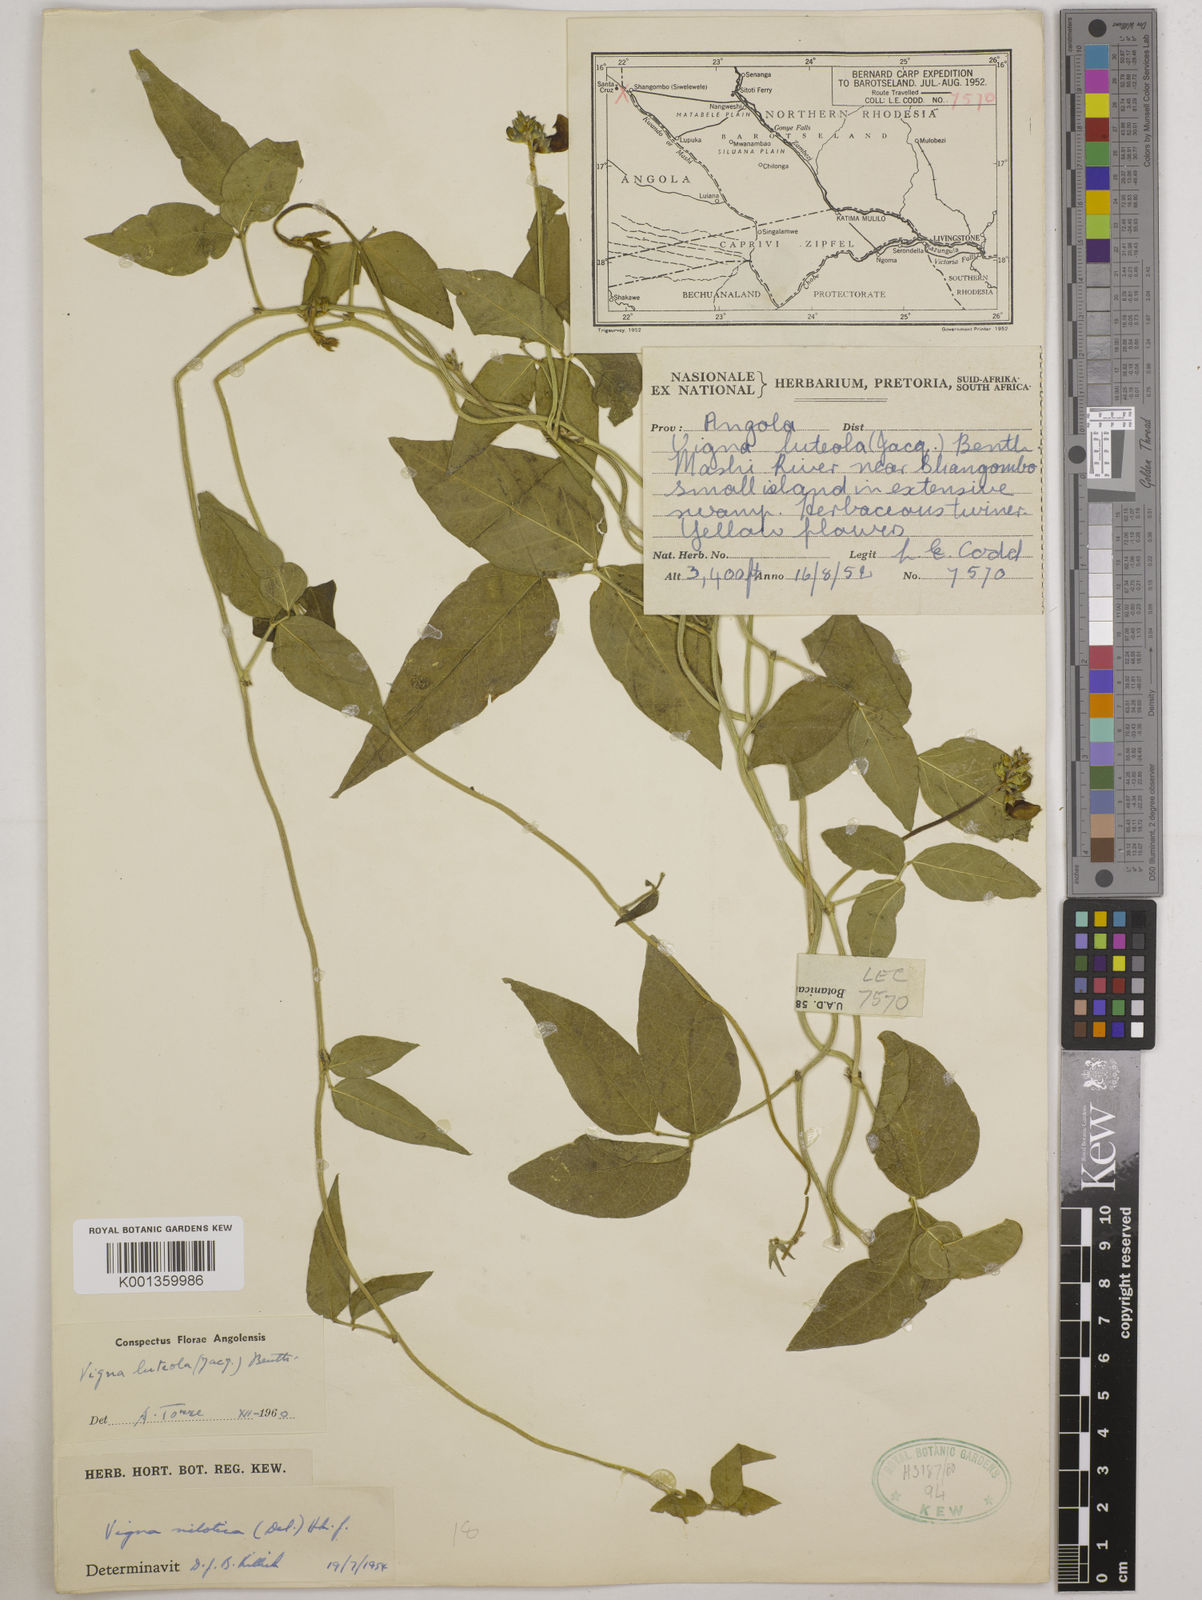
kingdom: Plantae
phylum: Tracheophyta
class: Magnoliopsida
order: Fabales
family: Fabaceae
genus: Vigna
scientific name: Vigna luteola
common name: Hairypod cowpea
